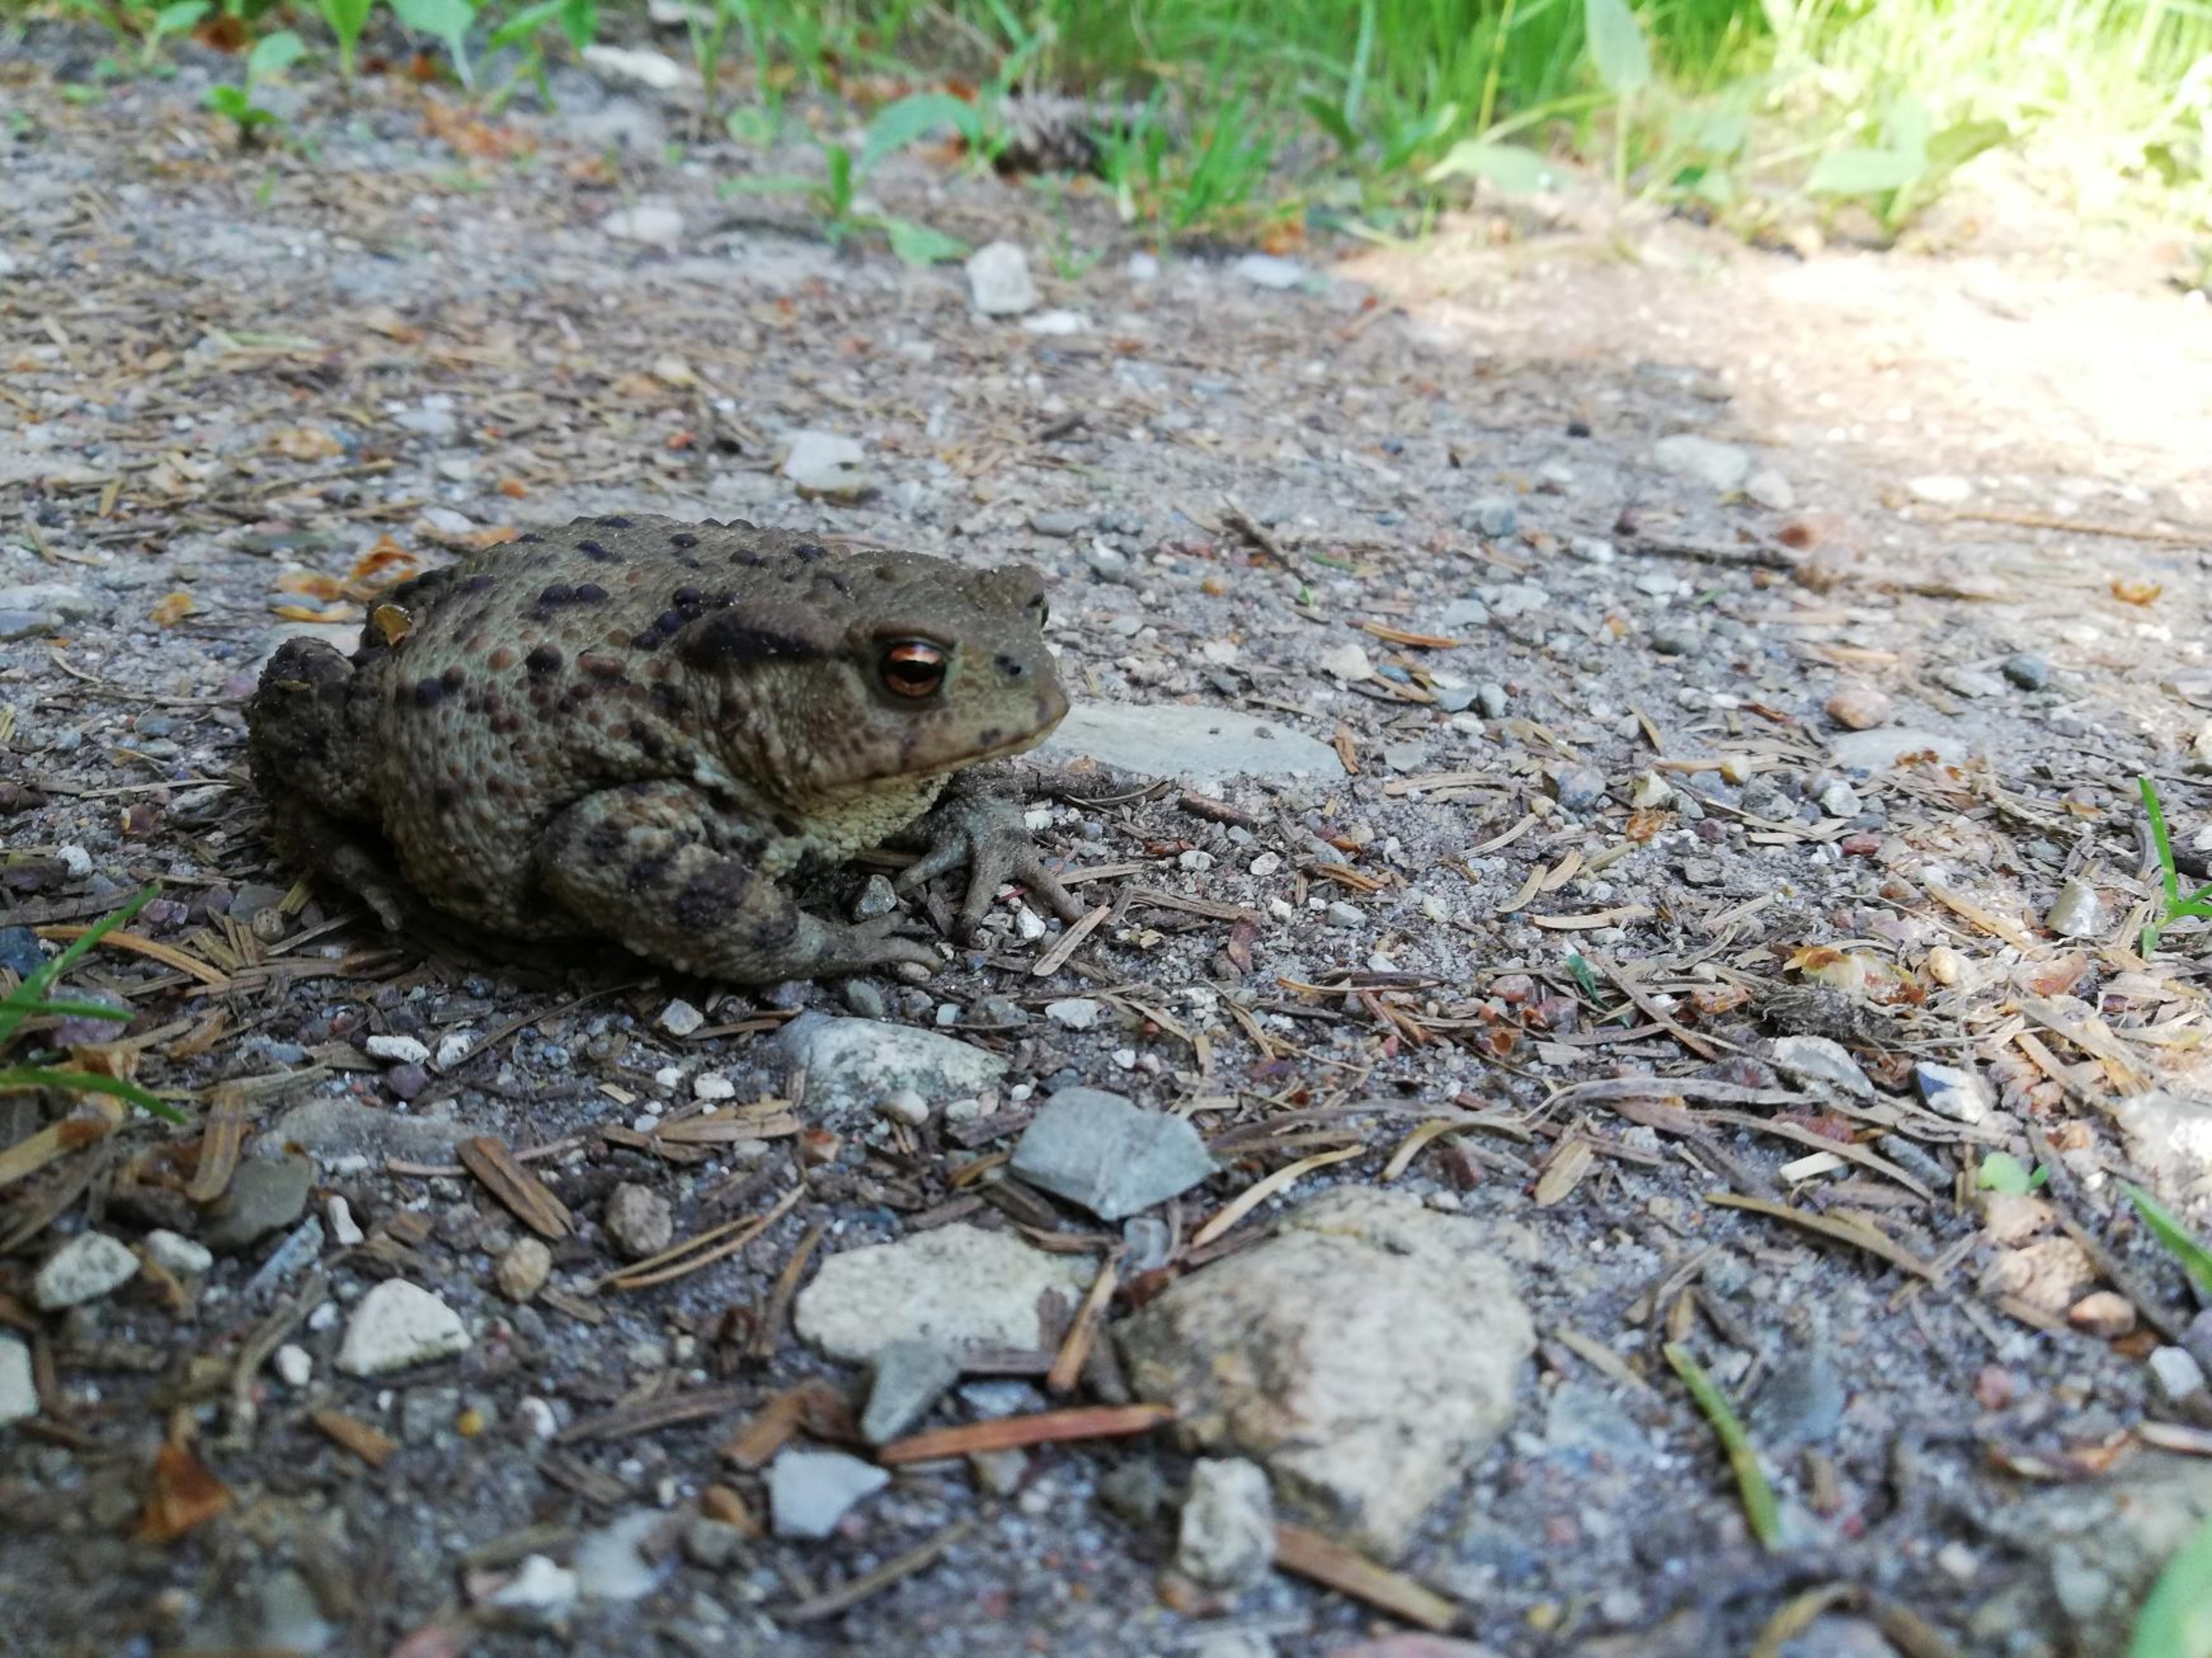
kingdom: Animalia
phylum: Chordata
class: Amphibia
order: Anura
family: Bufonidae
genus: Bufo
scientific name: Bufo bufo
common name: Skrubtudse
